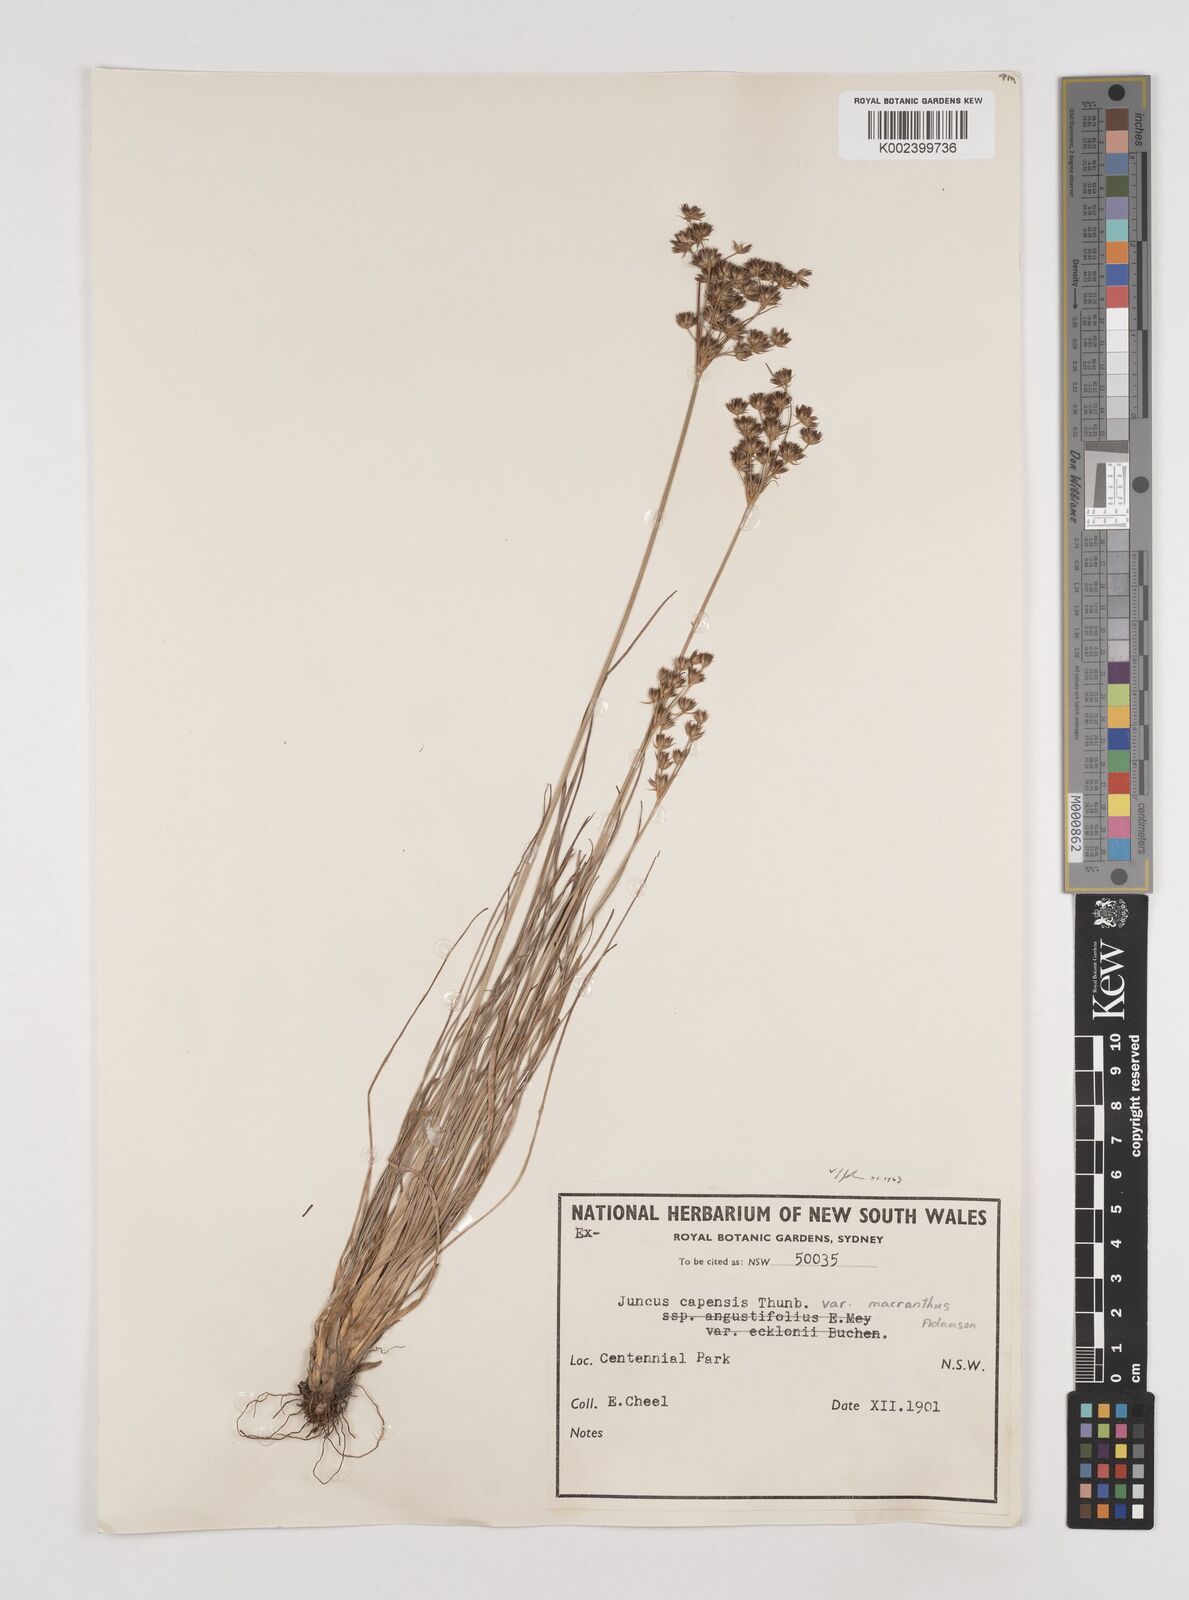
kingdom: Plantae
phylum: Tracheophyta
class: Liliopsida
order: Poales
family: Juncaceae
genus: Juncus
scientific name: Juncus capensis
